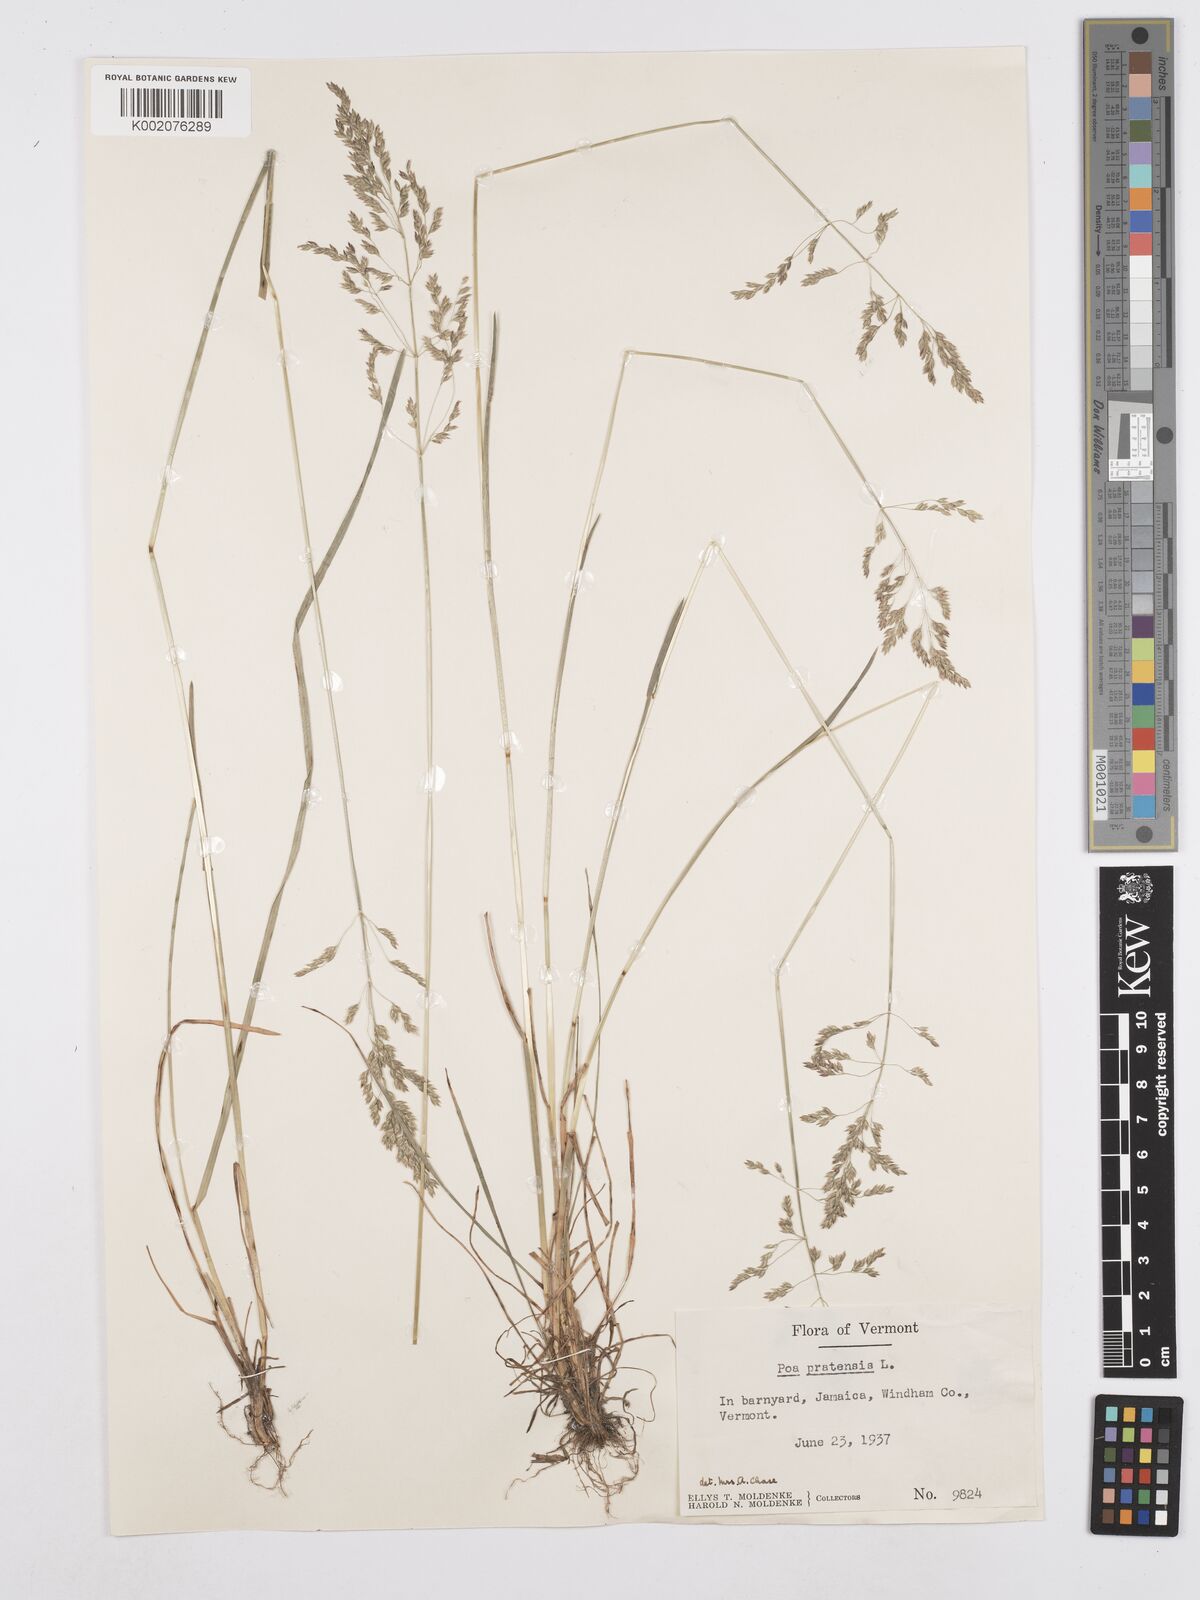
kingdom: Plantae
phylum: Tracheophyta
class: Liliopsida
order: Poales
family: Poaceae
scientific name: Poaceae
